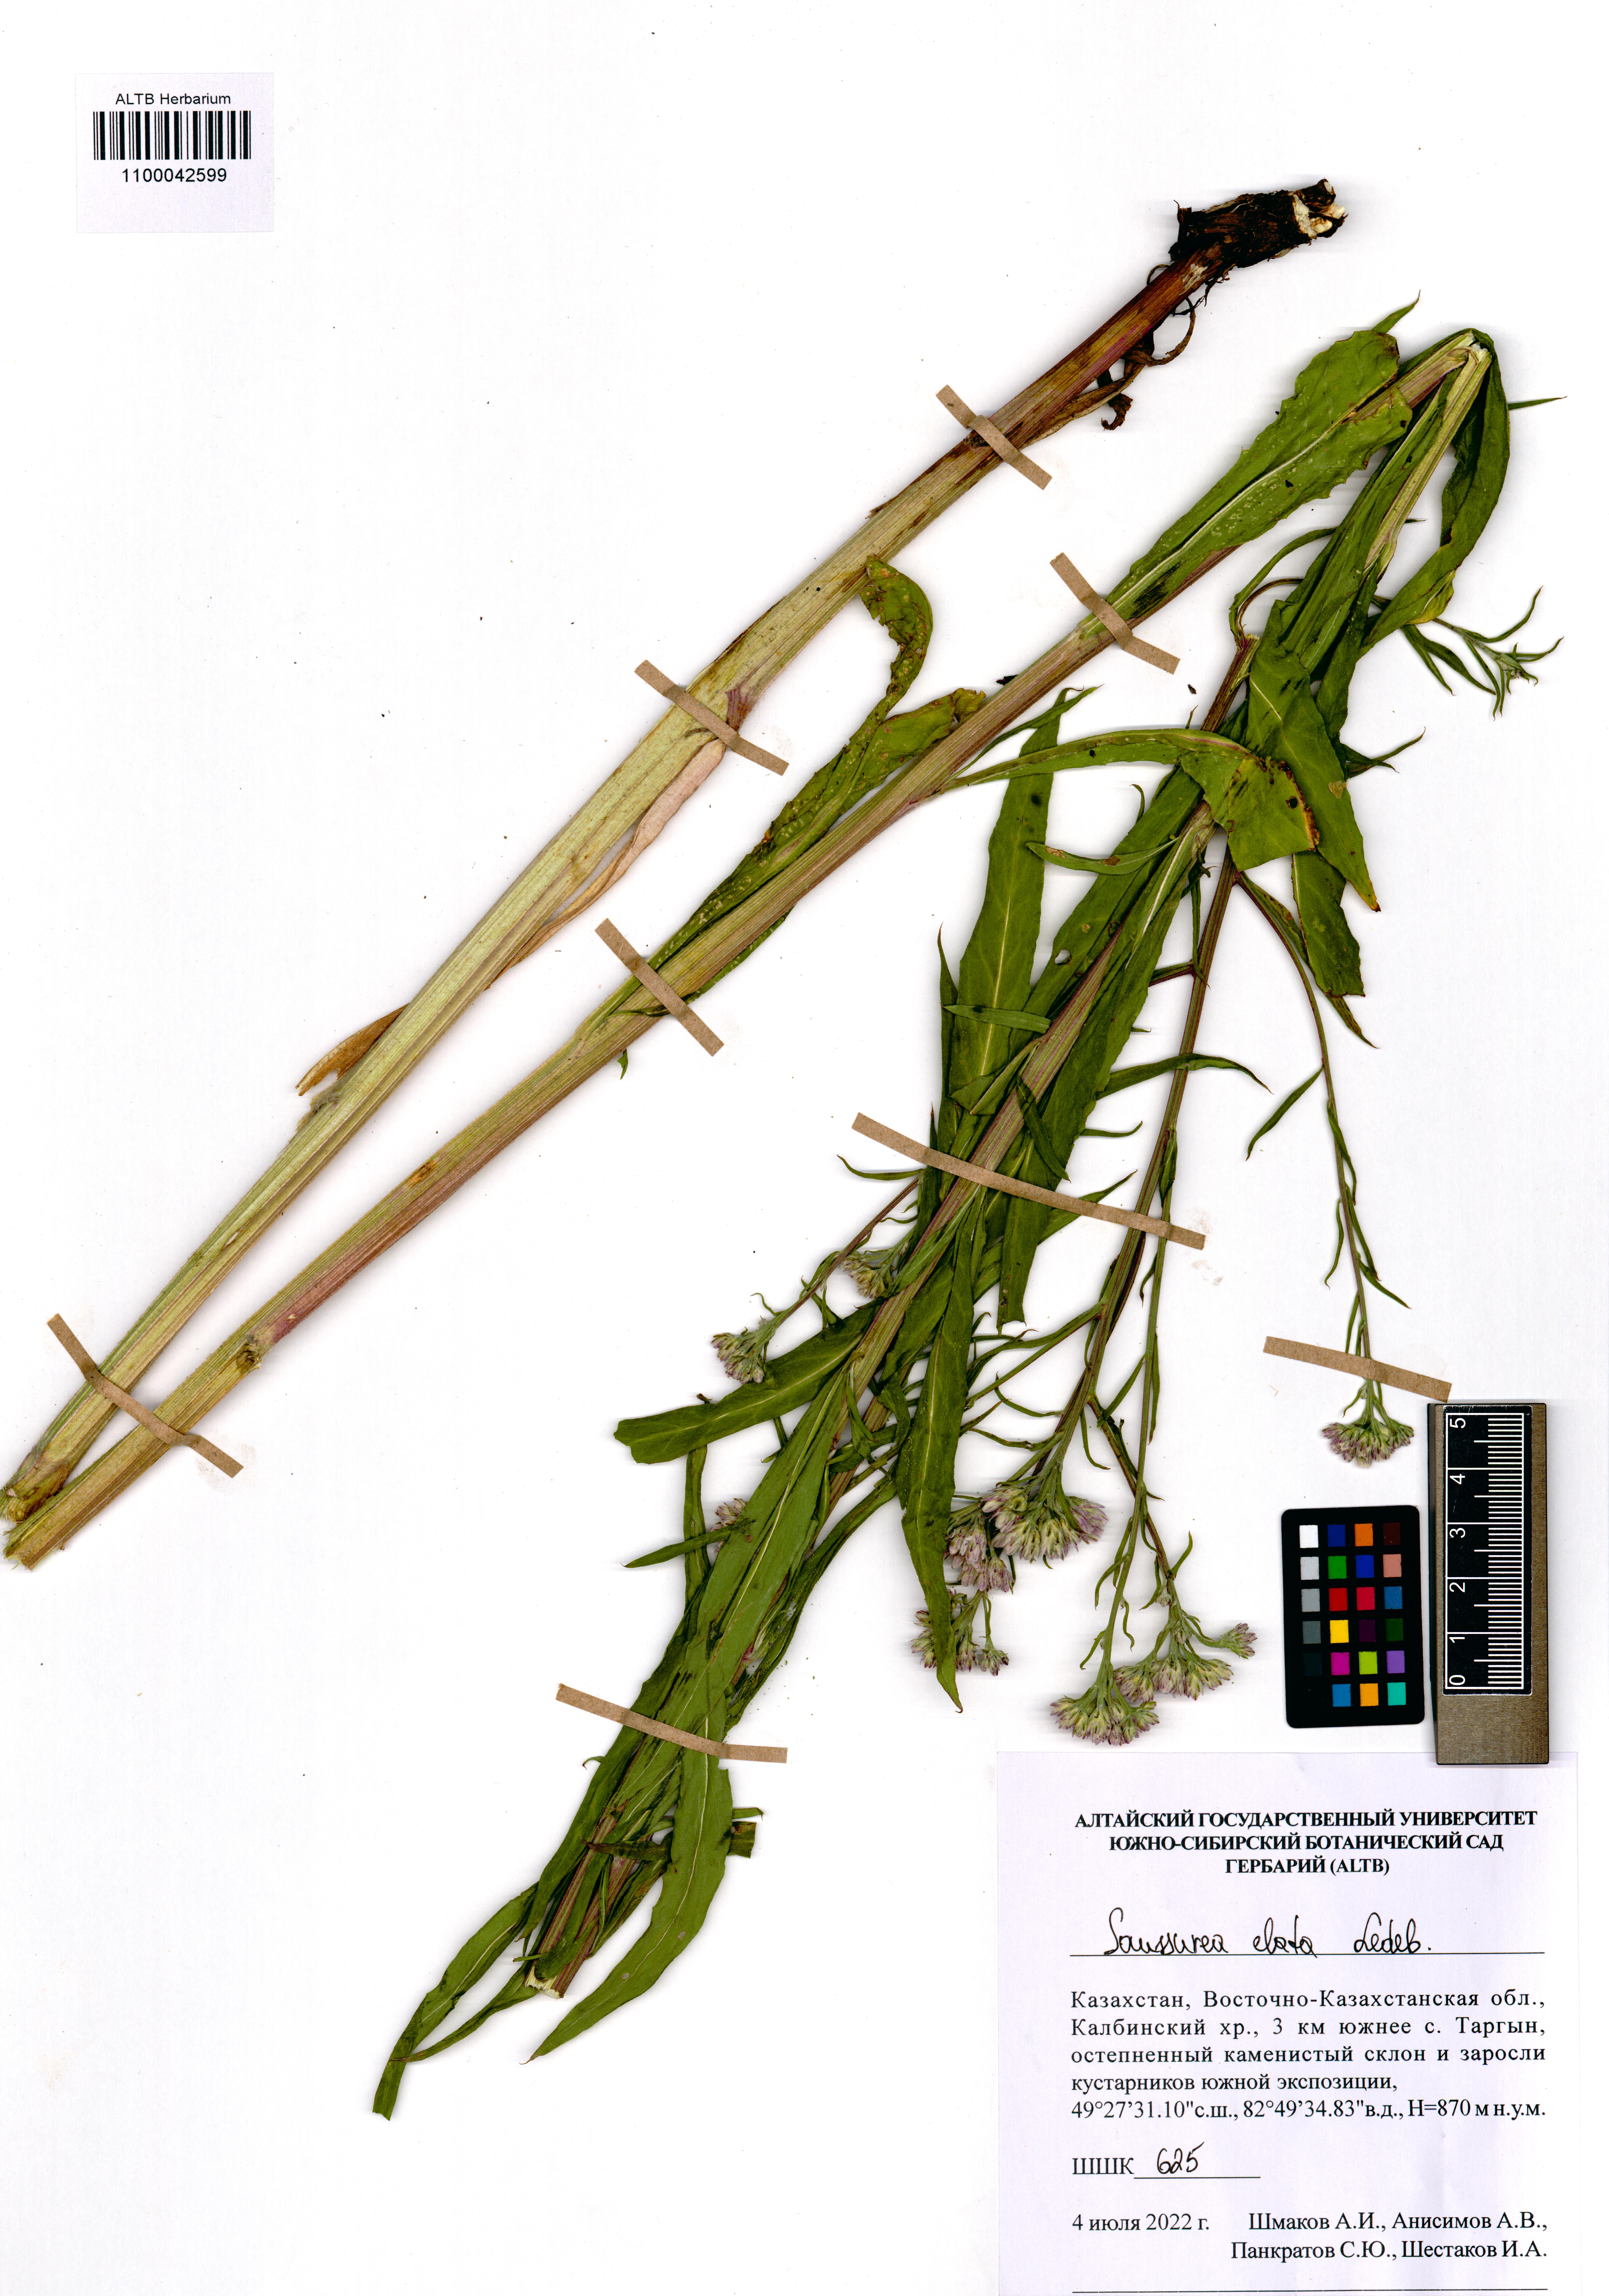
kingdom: Plantae
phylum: Tracheophyta
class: Magnoliopsida
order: Asterales
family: Asteraceae
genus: Saussurea
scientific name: Saussurea elata
